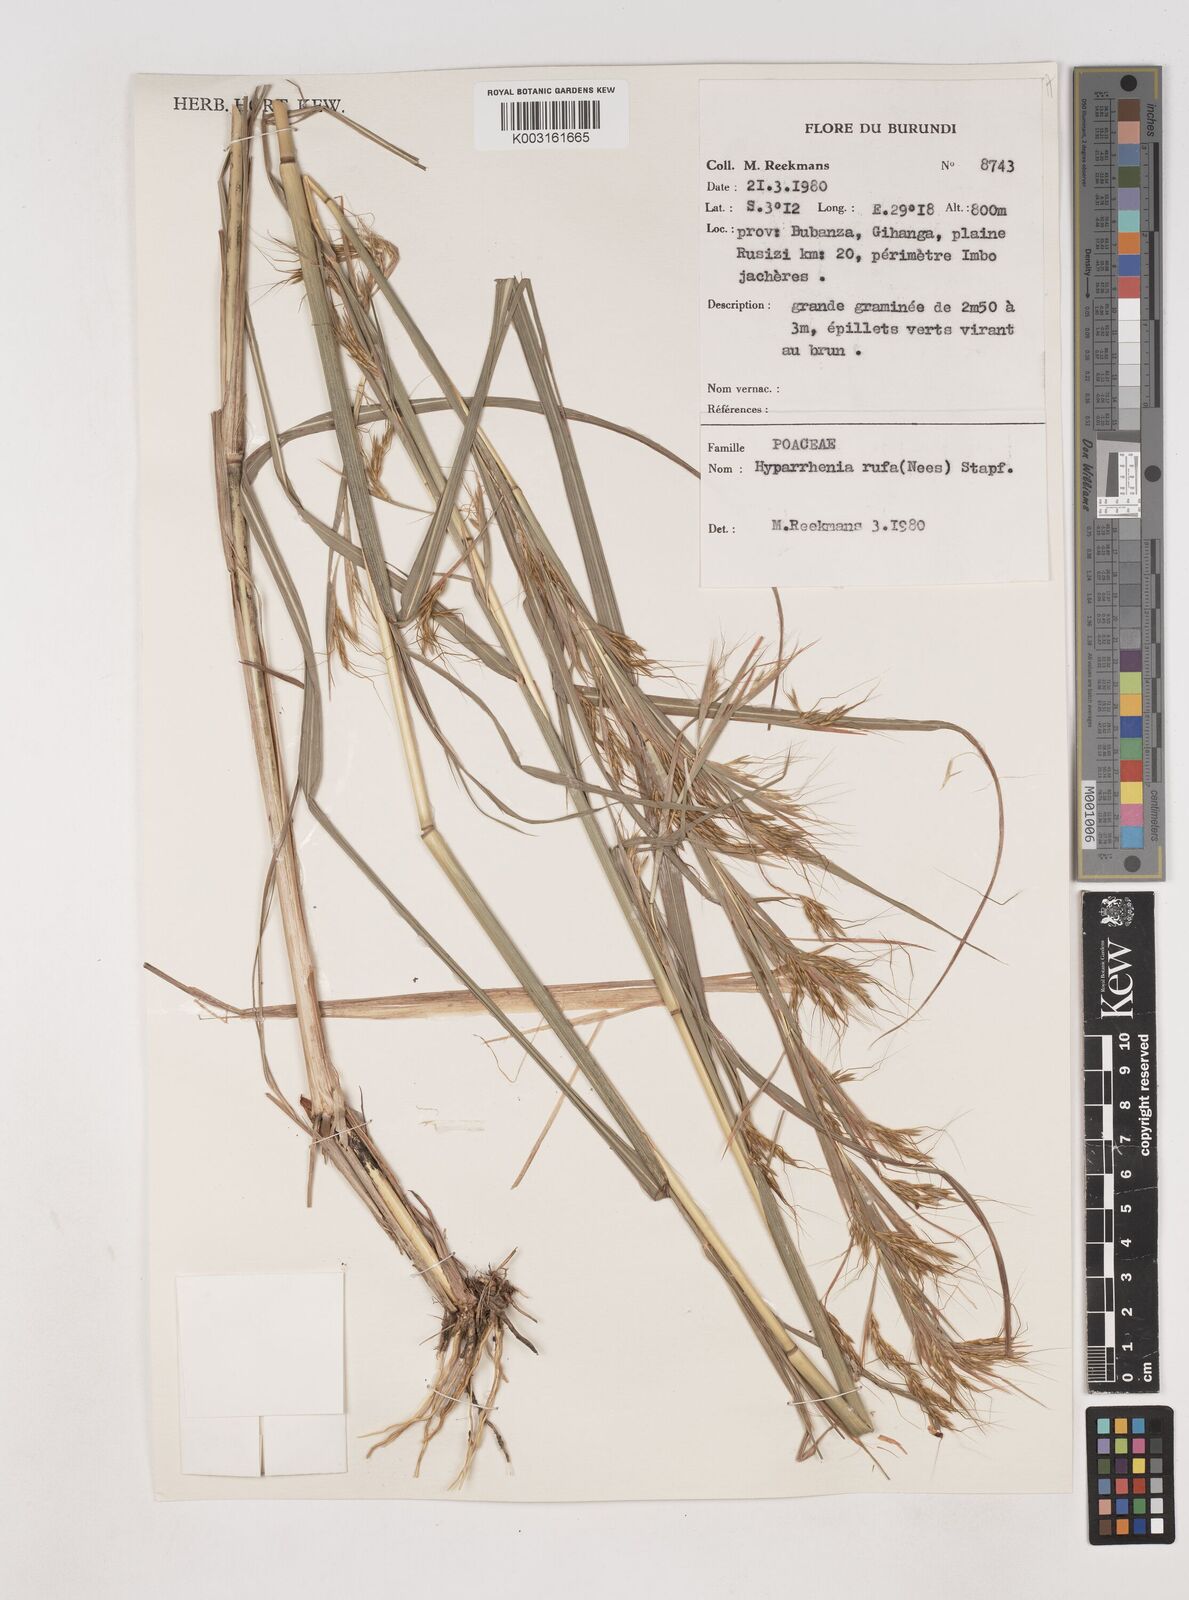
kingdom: Plantae
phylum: Tracheophyta
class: Liliopsida
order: Poales
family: Poaceae
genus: Hyparrhenia
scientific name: Hyparrhenia rufa
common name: Jaraguagrass
